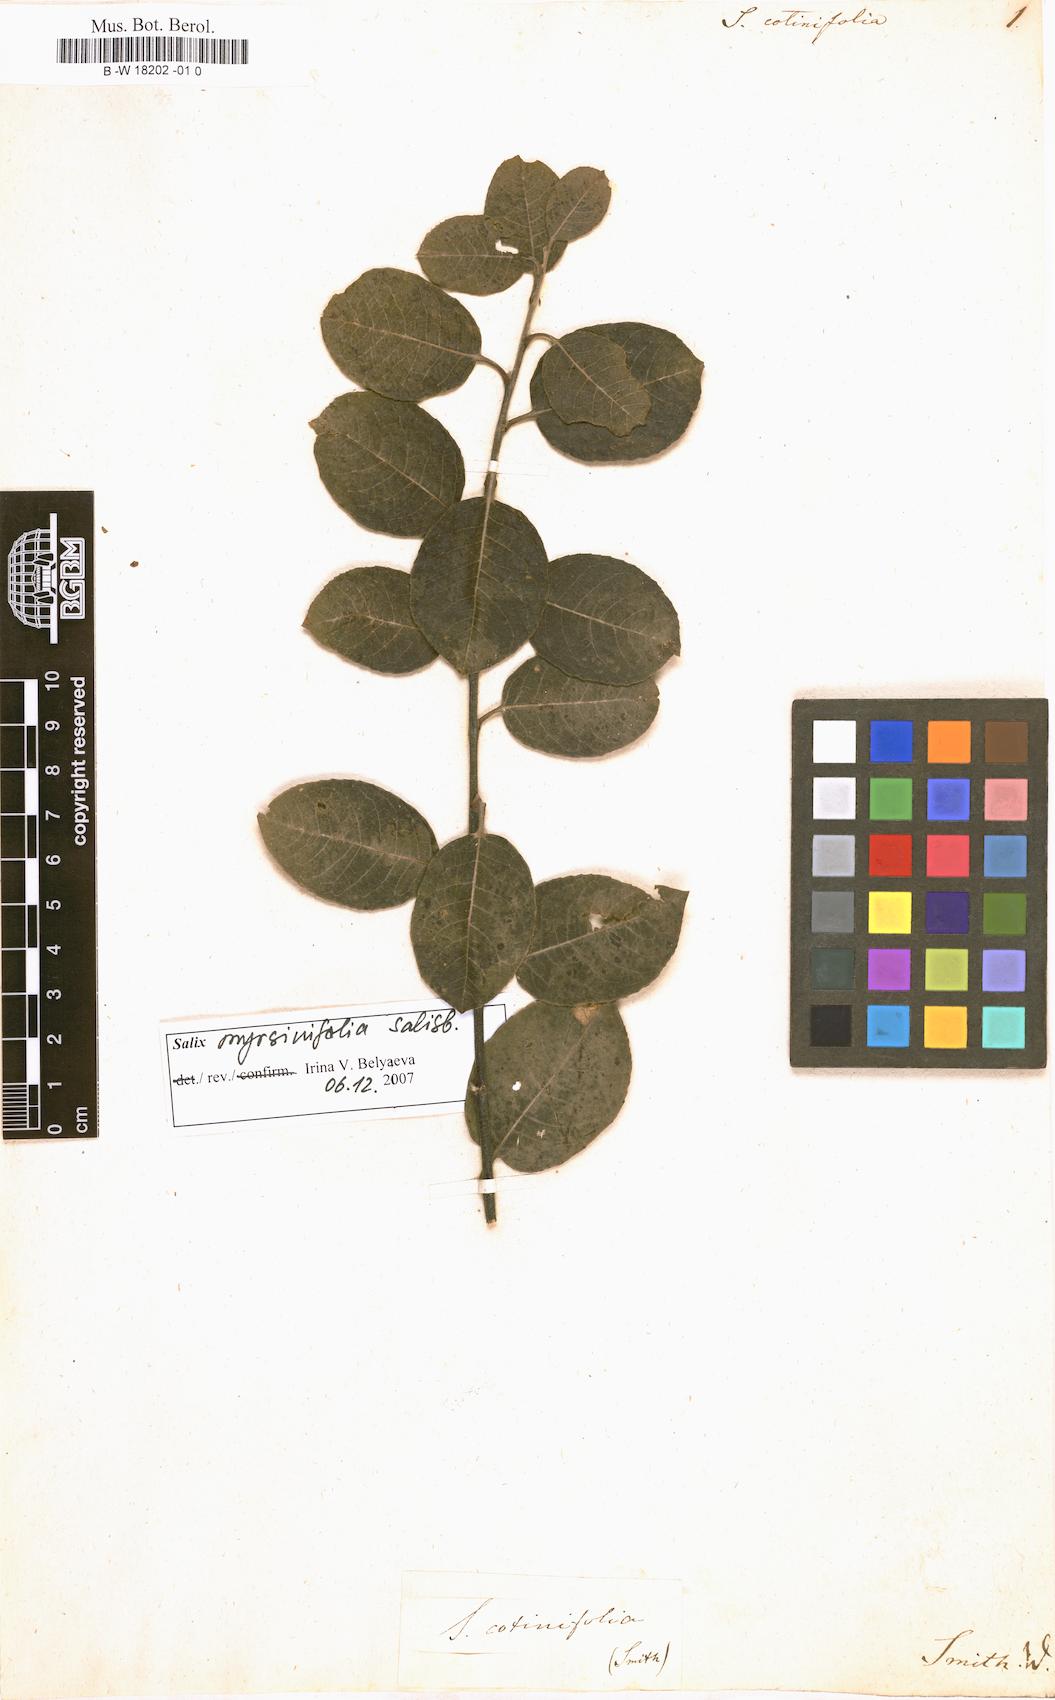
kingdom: Plantae
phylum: Tracheophyta
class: Magnoliopsida
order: Malpighiales
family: Salicaceae
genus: Salix
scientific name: Salix myrsinifolia
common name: Dark-leaved willow
